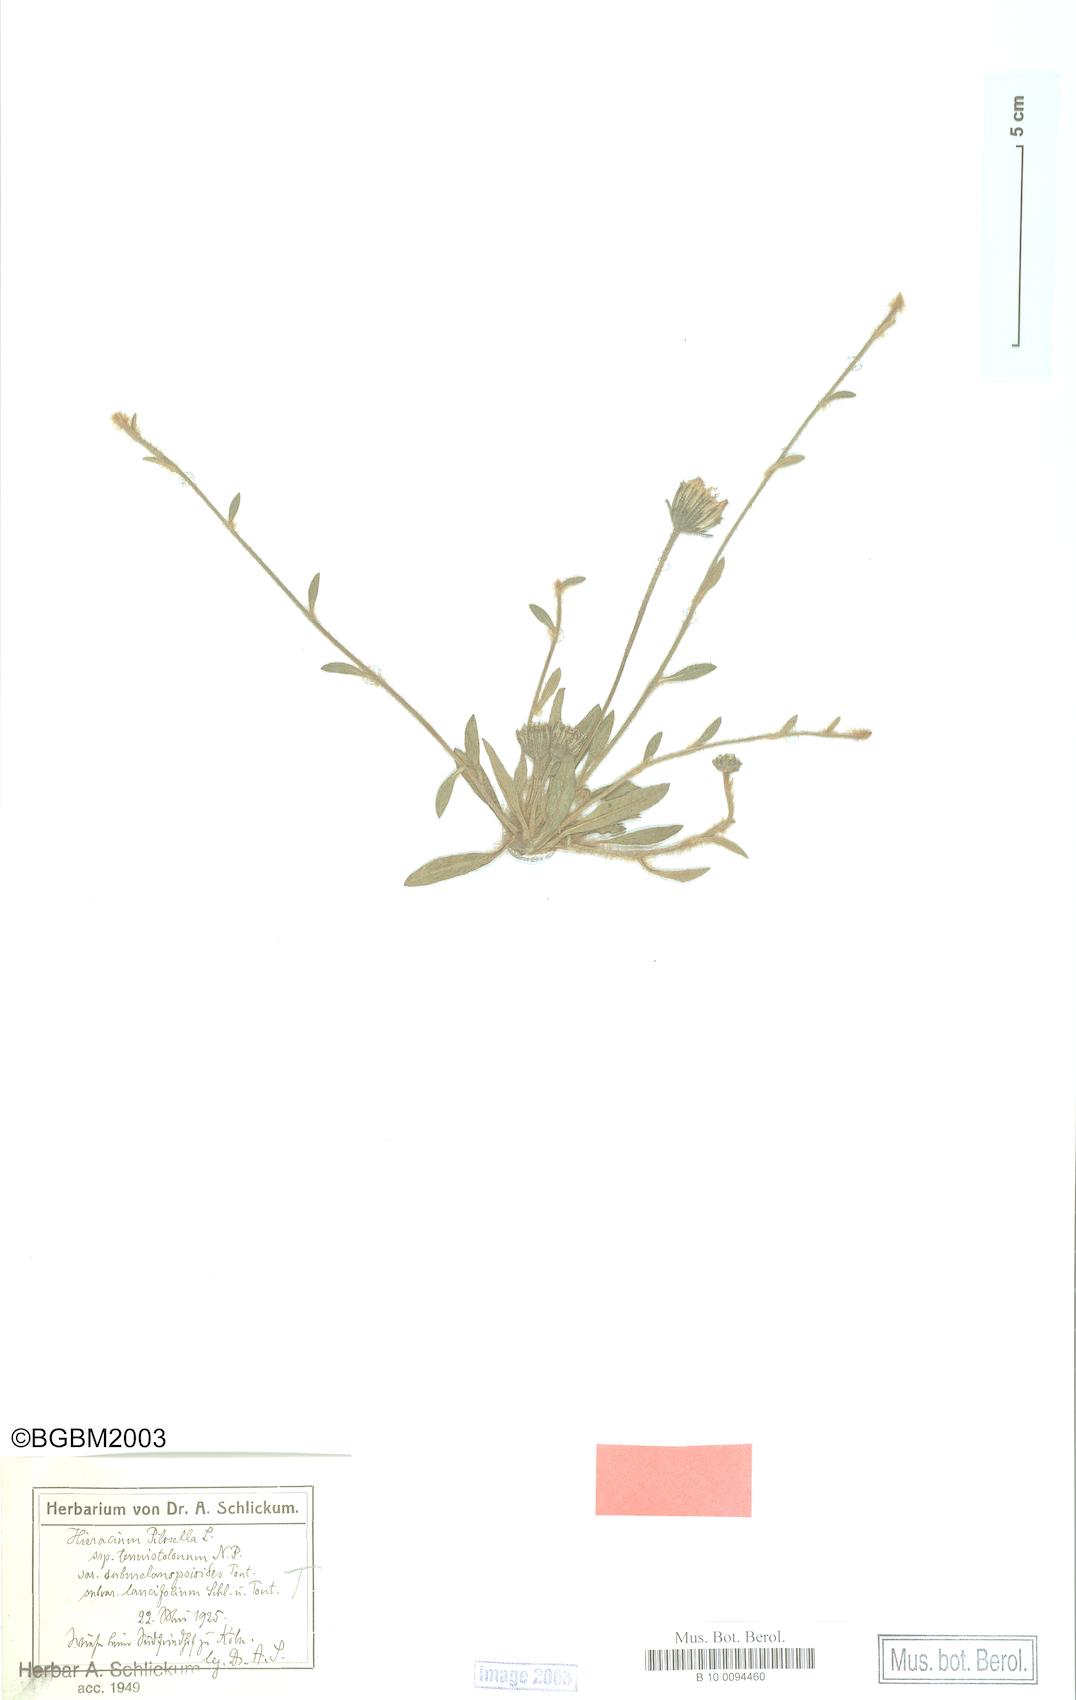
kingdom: Plantae
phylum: Tracheophyta
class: Magnoliopsida
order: Asterales
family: Asteraceae
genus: Pilosella
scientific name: Pilosella officinarum
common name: Mouse-ear hawkweed
